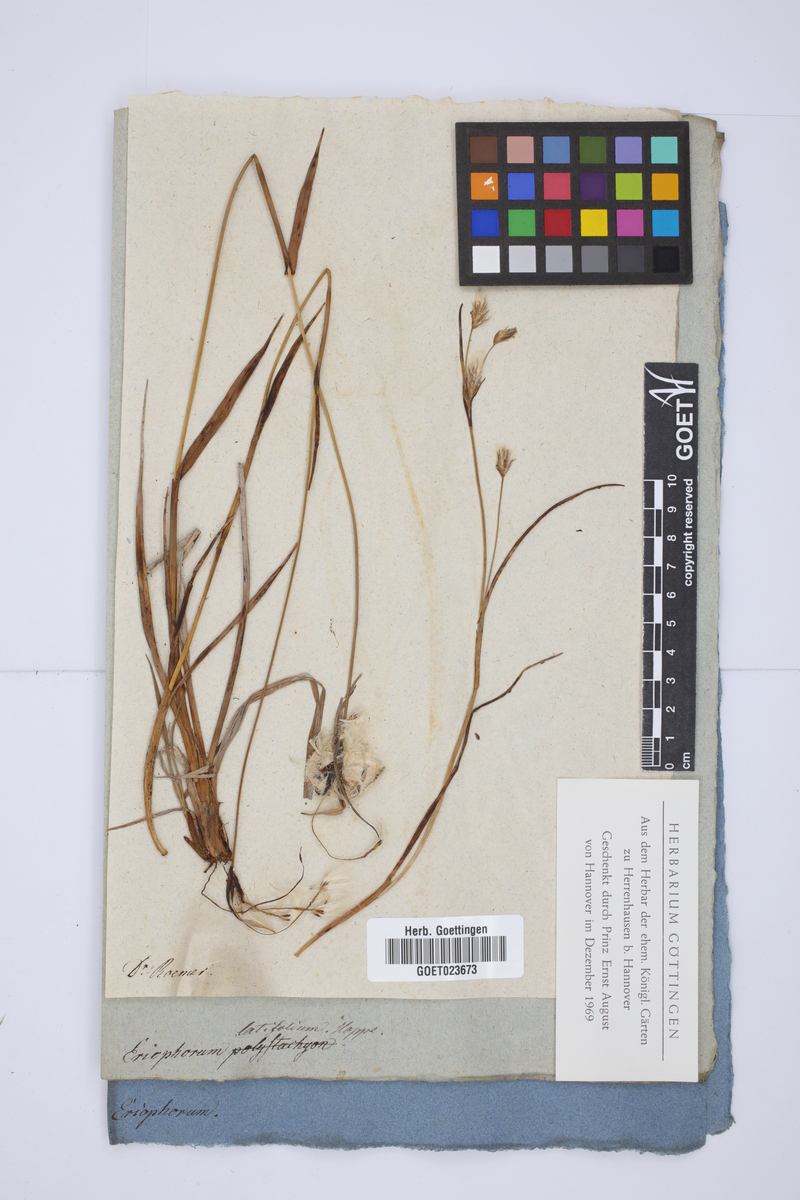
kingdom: Plantae
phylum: Tracheophyta
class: Liliopsida
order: Poales
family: Cyperaceae
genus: Eriophorum
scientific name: Eriophorum latifolium
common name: Broad-leaved cottongrass
